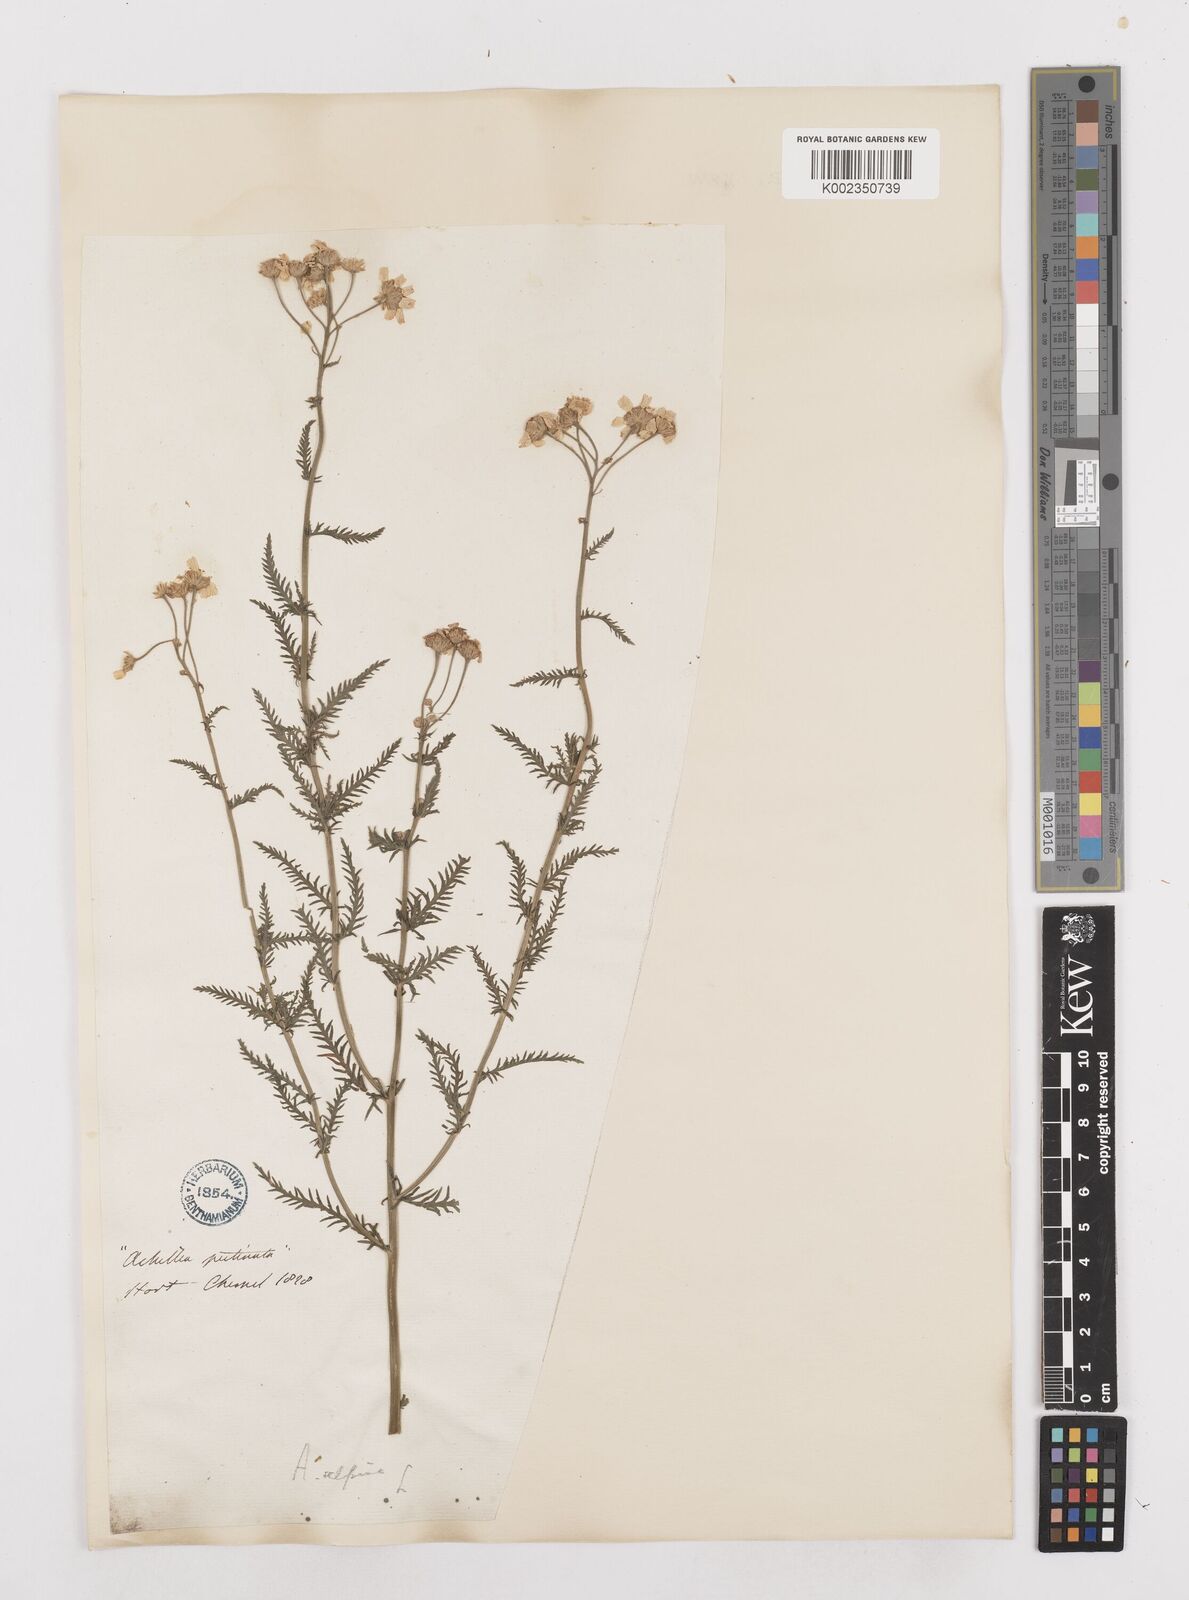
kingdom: Plantae
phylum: Tracheophyta
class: Magnoliopsida
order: Asterales
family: Asteraceae
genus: Achillea
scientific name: Achillea impatiens
